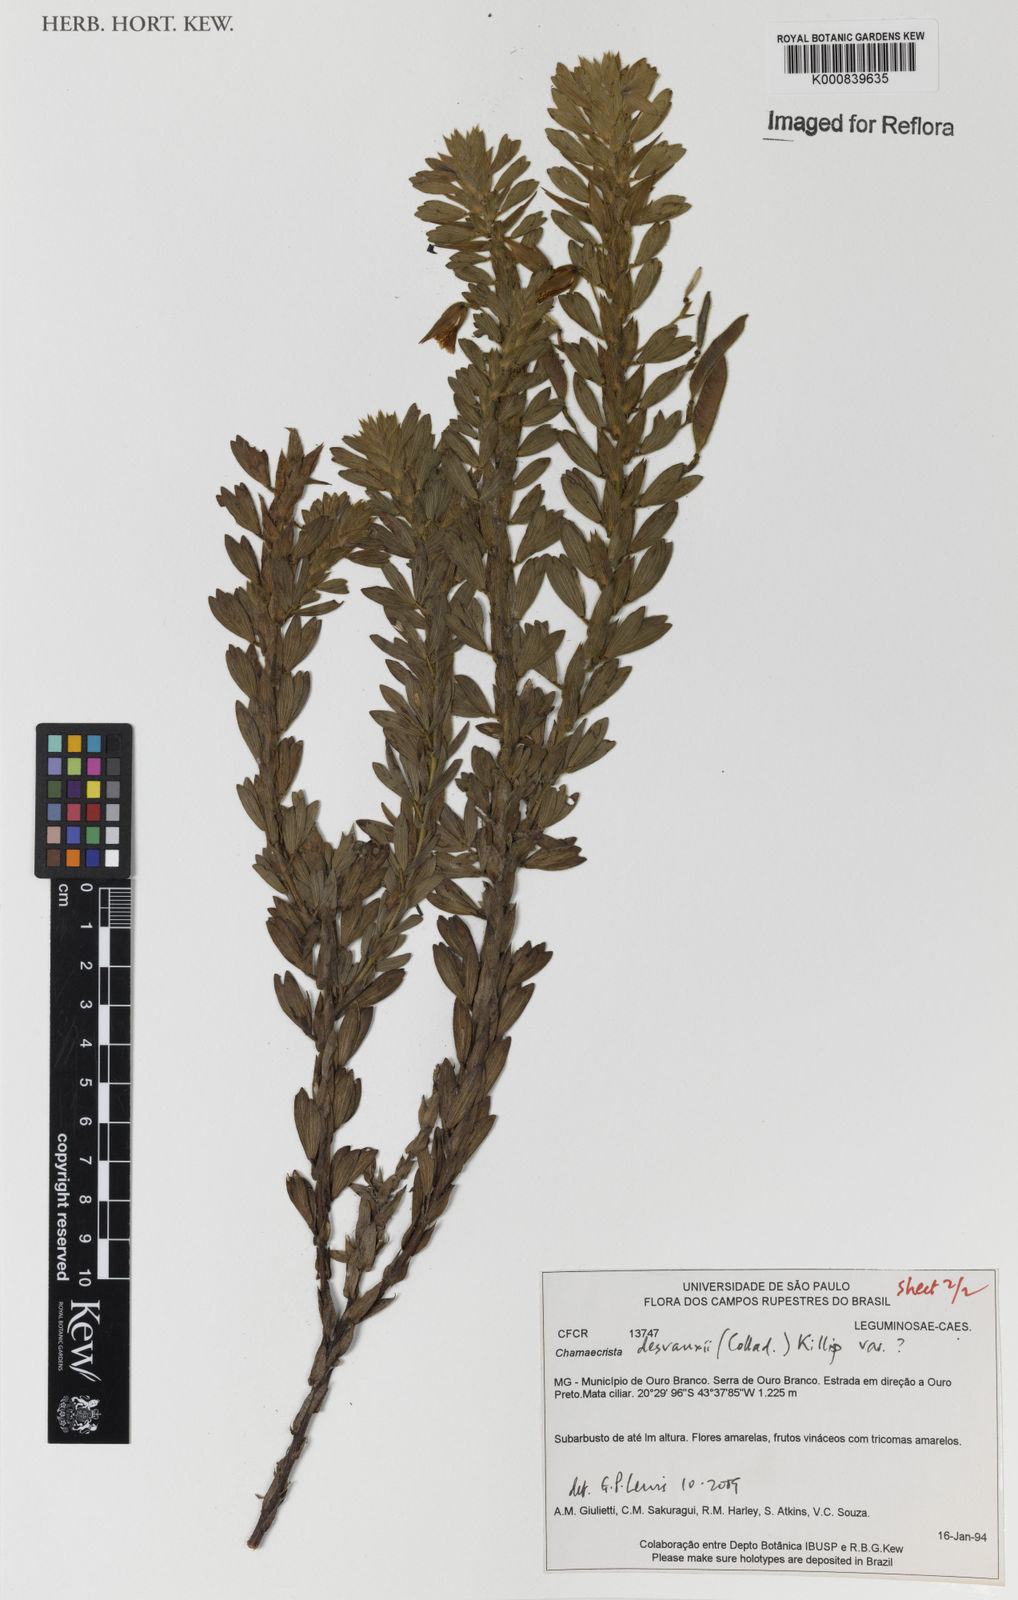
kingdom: Plantae
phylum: Tracheophyta
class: Magnoliopsida
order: Fabales
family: Fabaceae
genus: Chamaecrista
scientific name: Chamaecrista desvauxii
